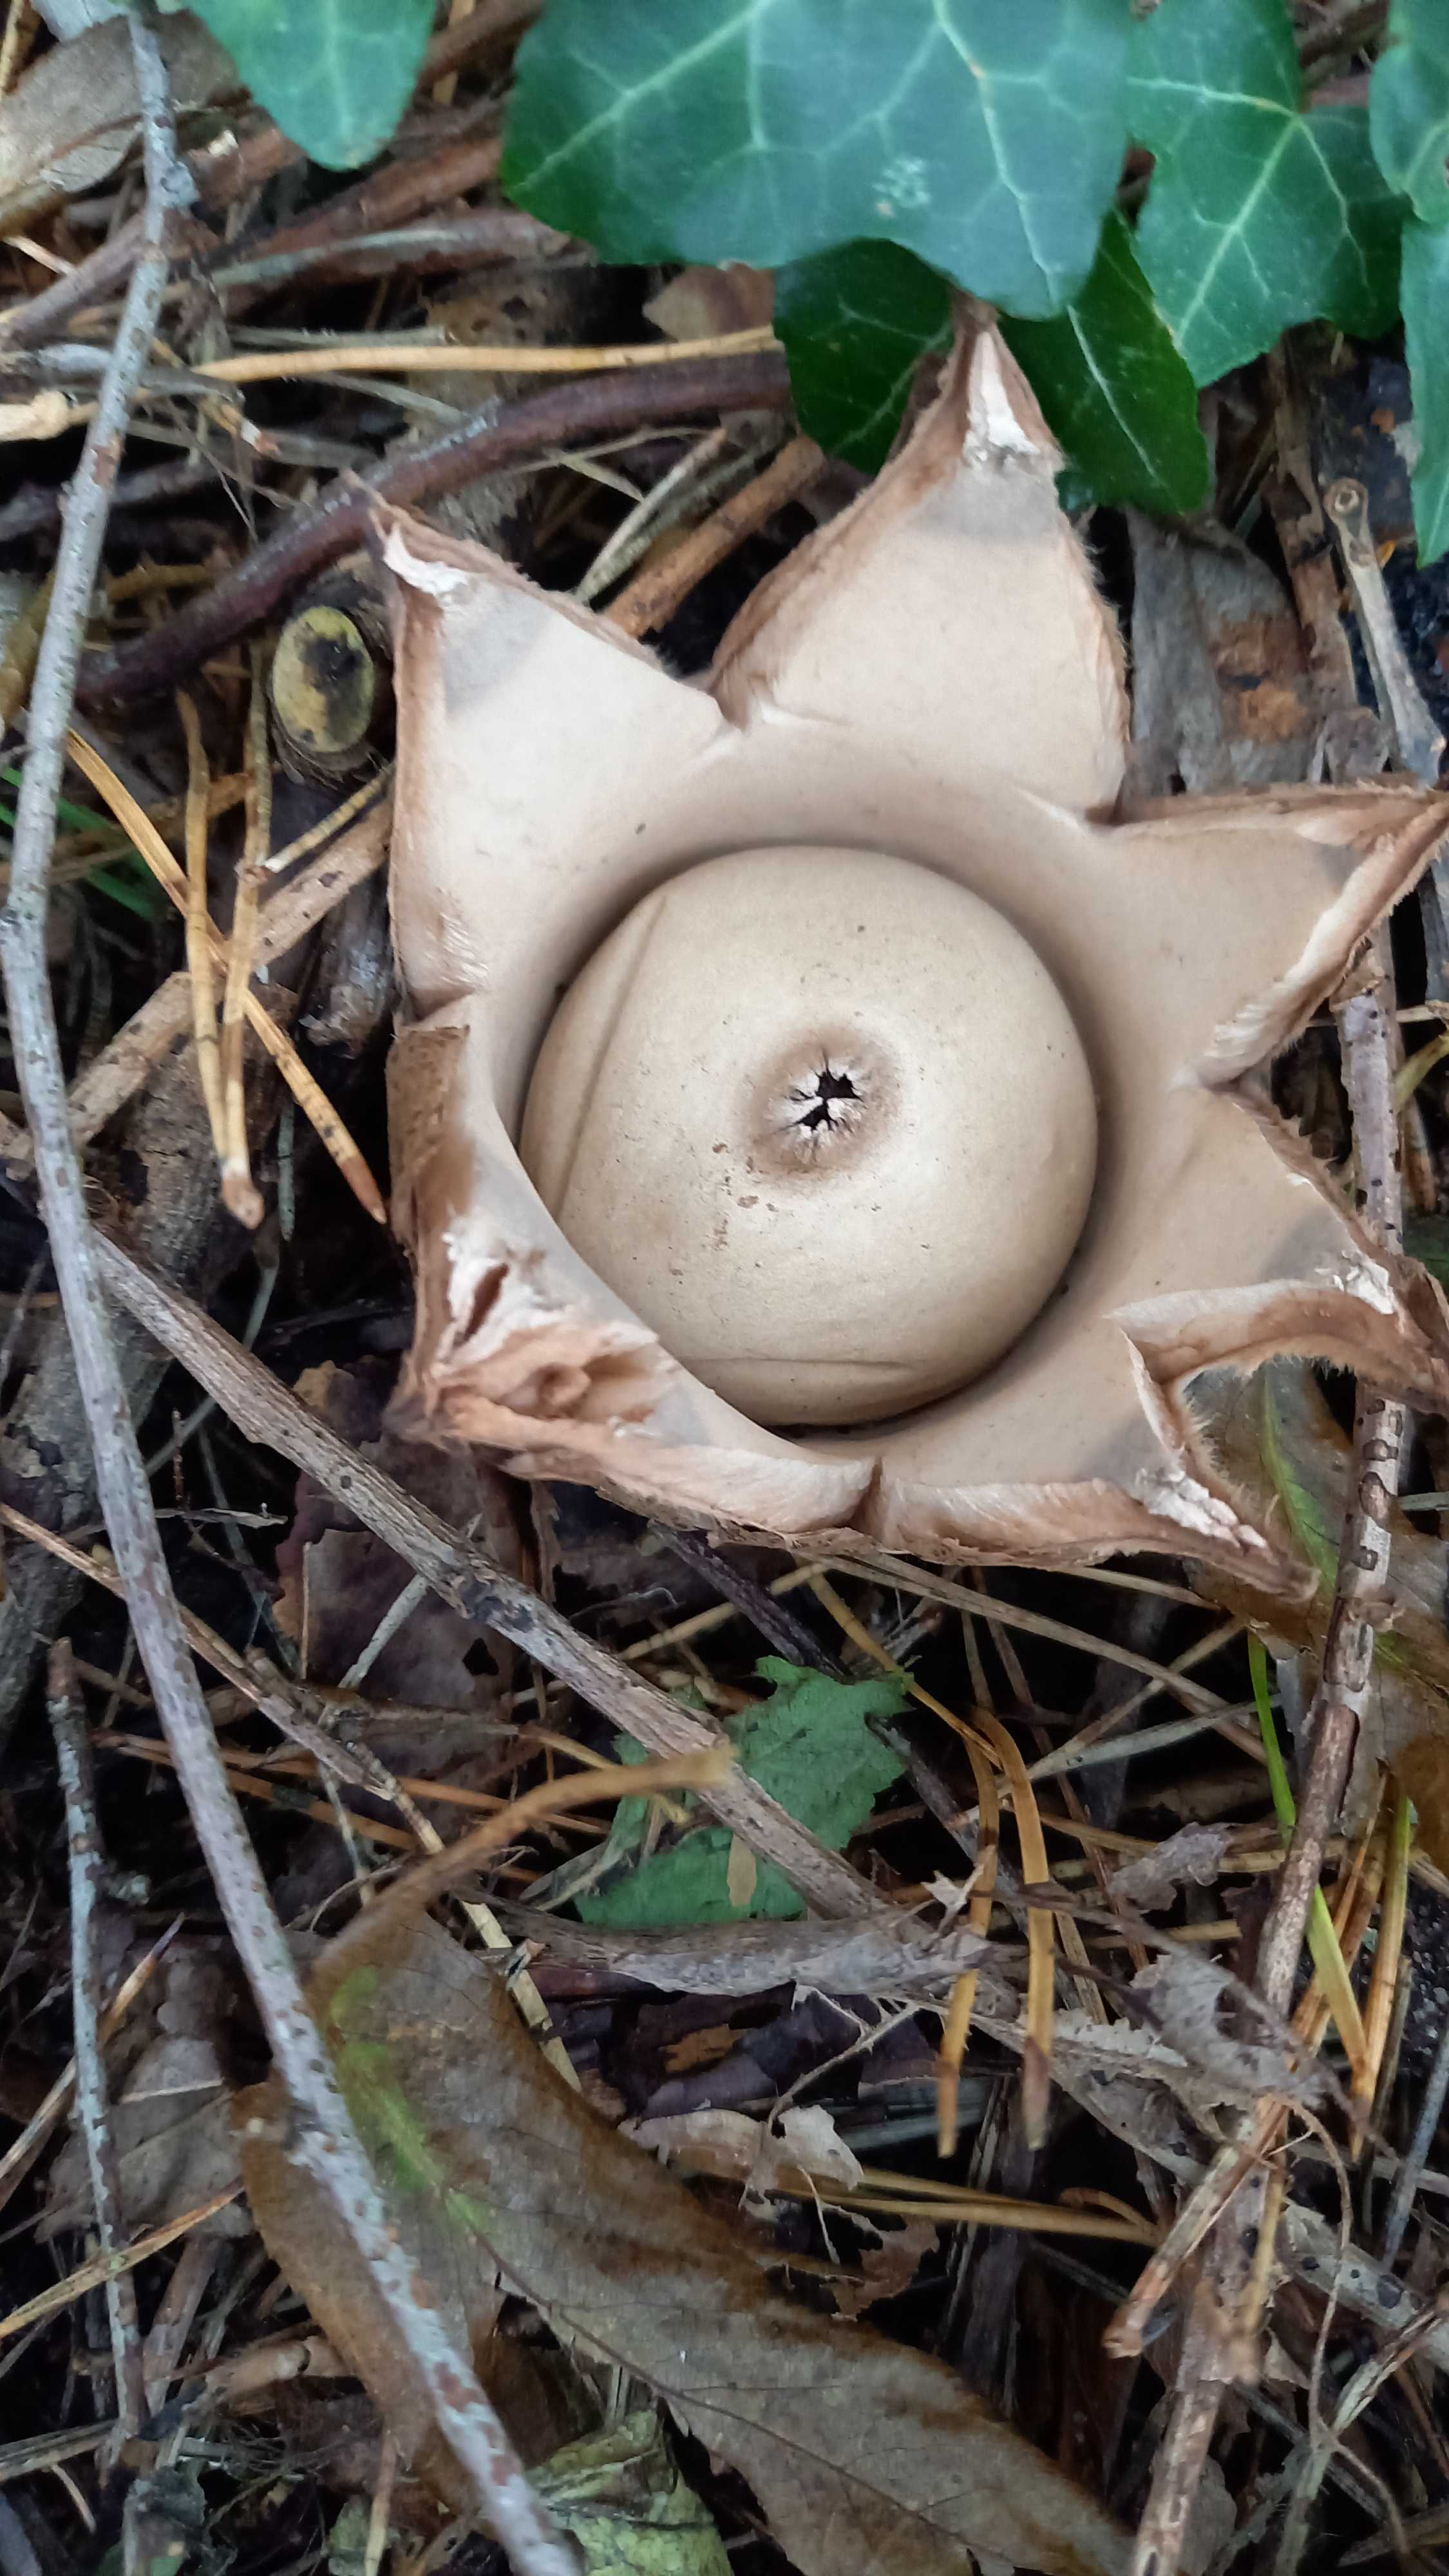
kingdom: Fungi
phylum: Basidiomycota
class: Agaricomycetes
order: Geastrales
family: Geastraceae
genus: Geastrum
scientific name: Geastrum michelianum
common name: kødet stjernebold
